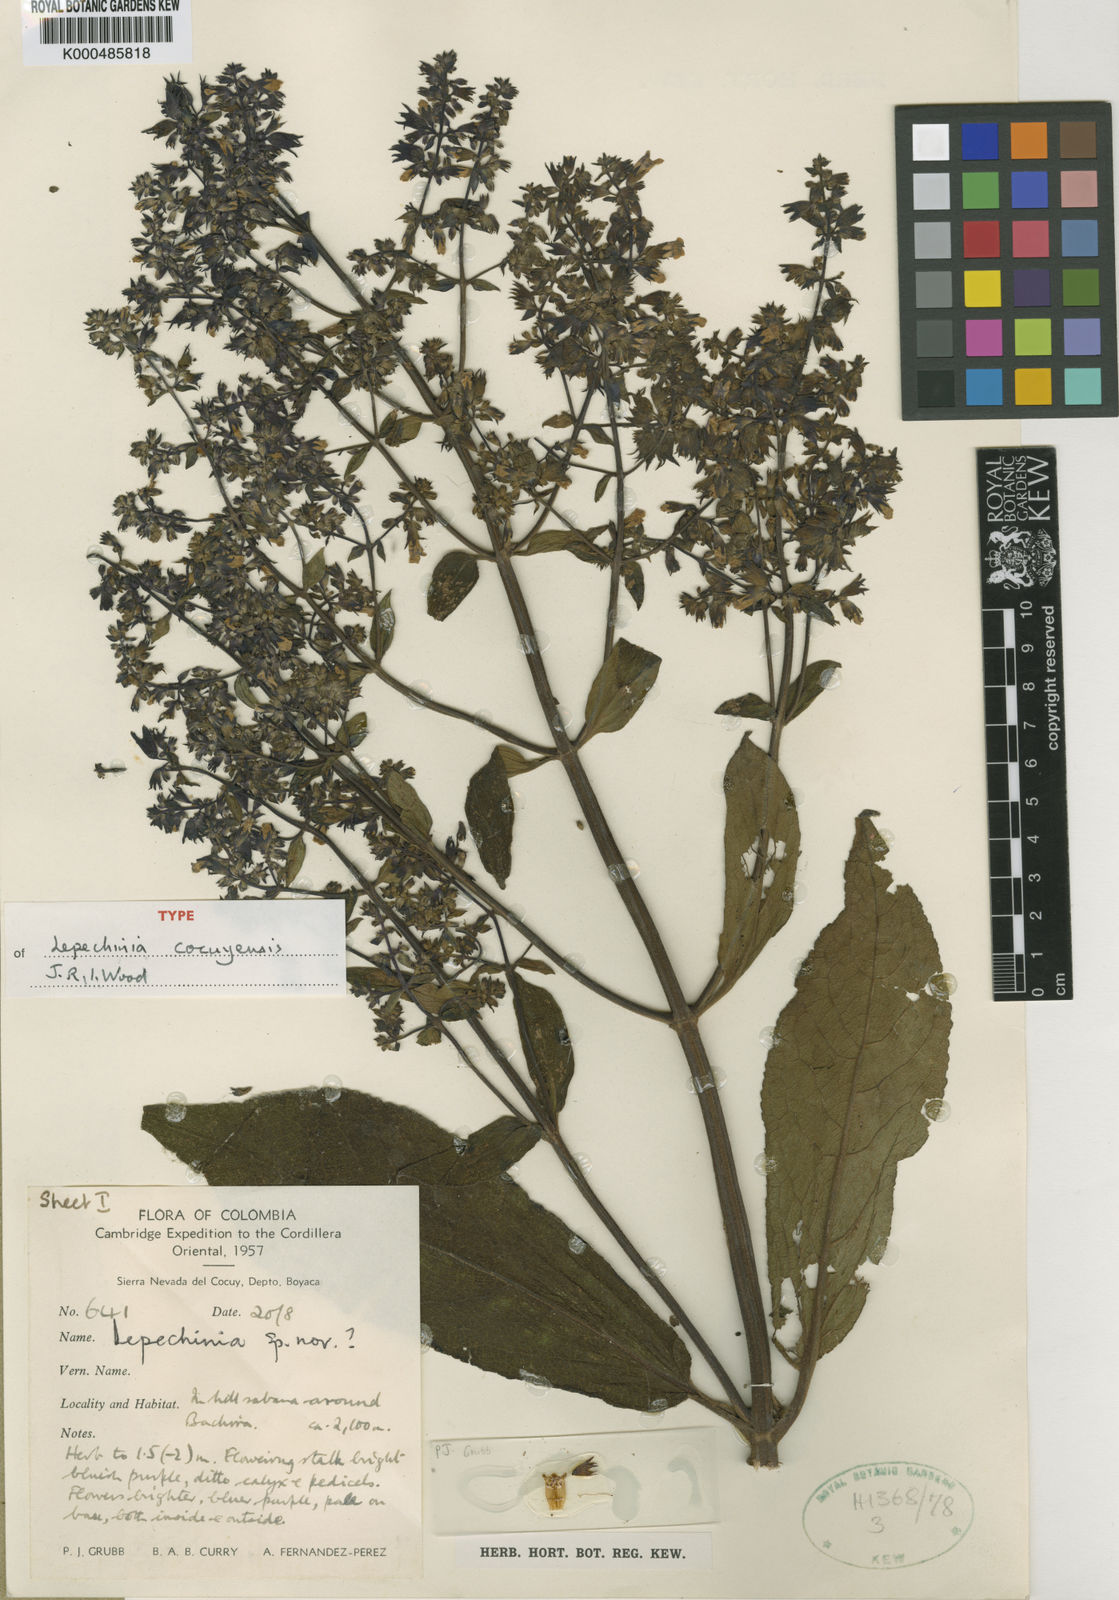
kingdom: Plantae
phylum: Tracheophyta
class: Magnoliopsida
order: Lamiales
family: Lamiaceae
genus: Lepechinia
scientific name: Lepechinia cocuyensis
